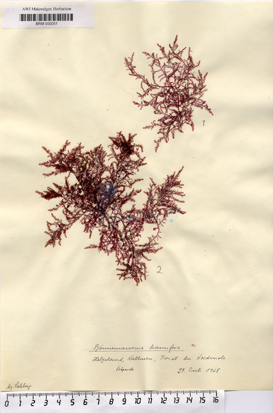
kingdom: Plantae
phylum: Rhodophyta
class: Florideophyceae
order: Bonnemaisoniales
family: Bonnemaisoniaceae
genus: Bonnemaisonia
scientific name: Bonnemaisonia hamifera
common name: Bonnemaison's hook weed
